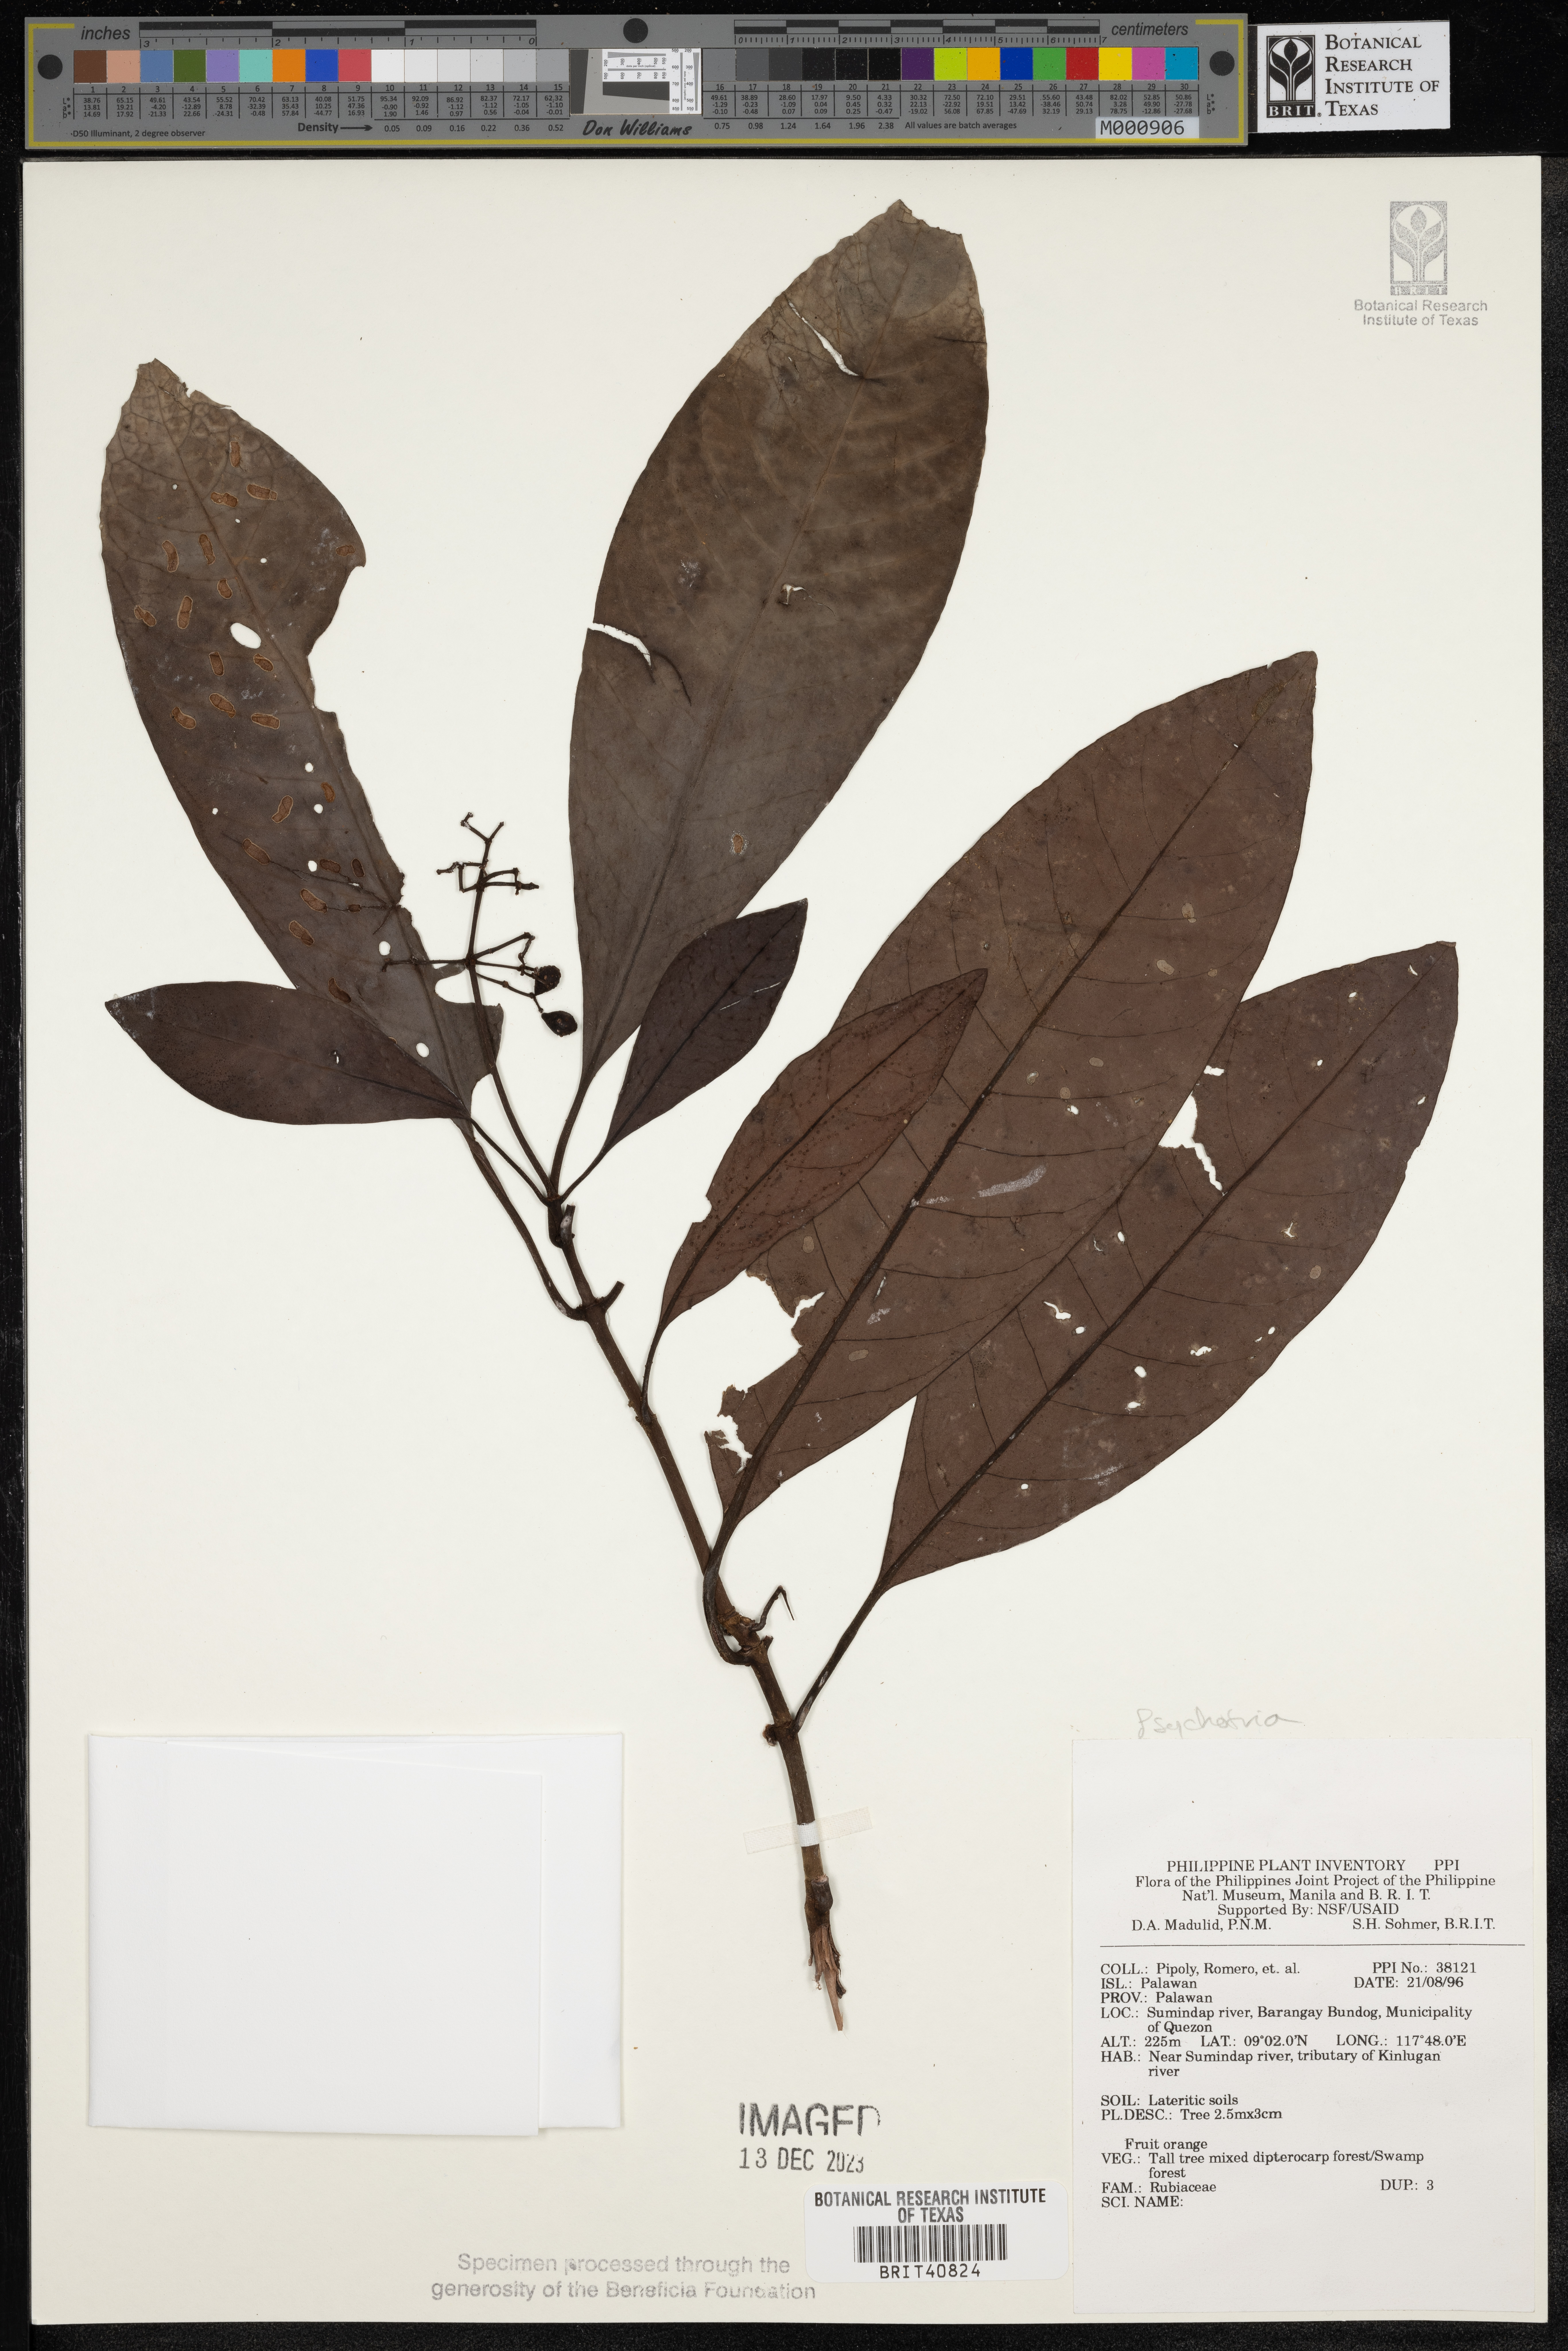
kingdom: Plantae
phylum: Tracheophyta
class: Magnoliopsida
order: Gentianales
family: Rubiaceae
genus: Psychotria
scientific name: Psychotria
